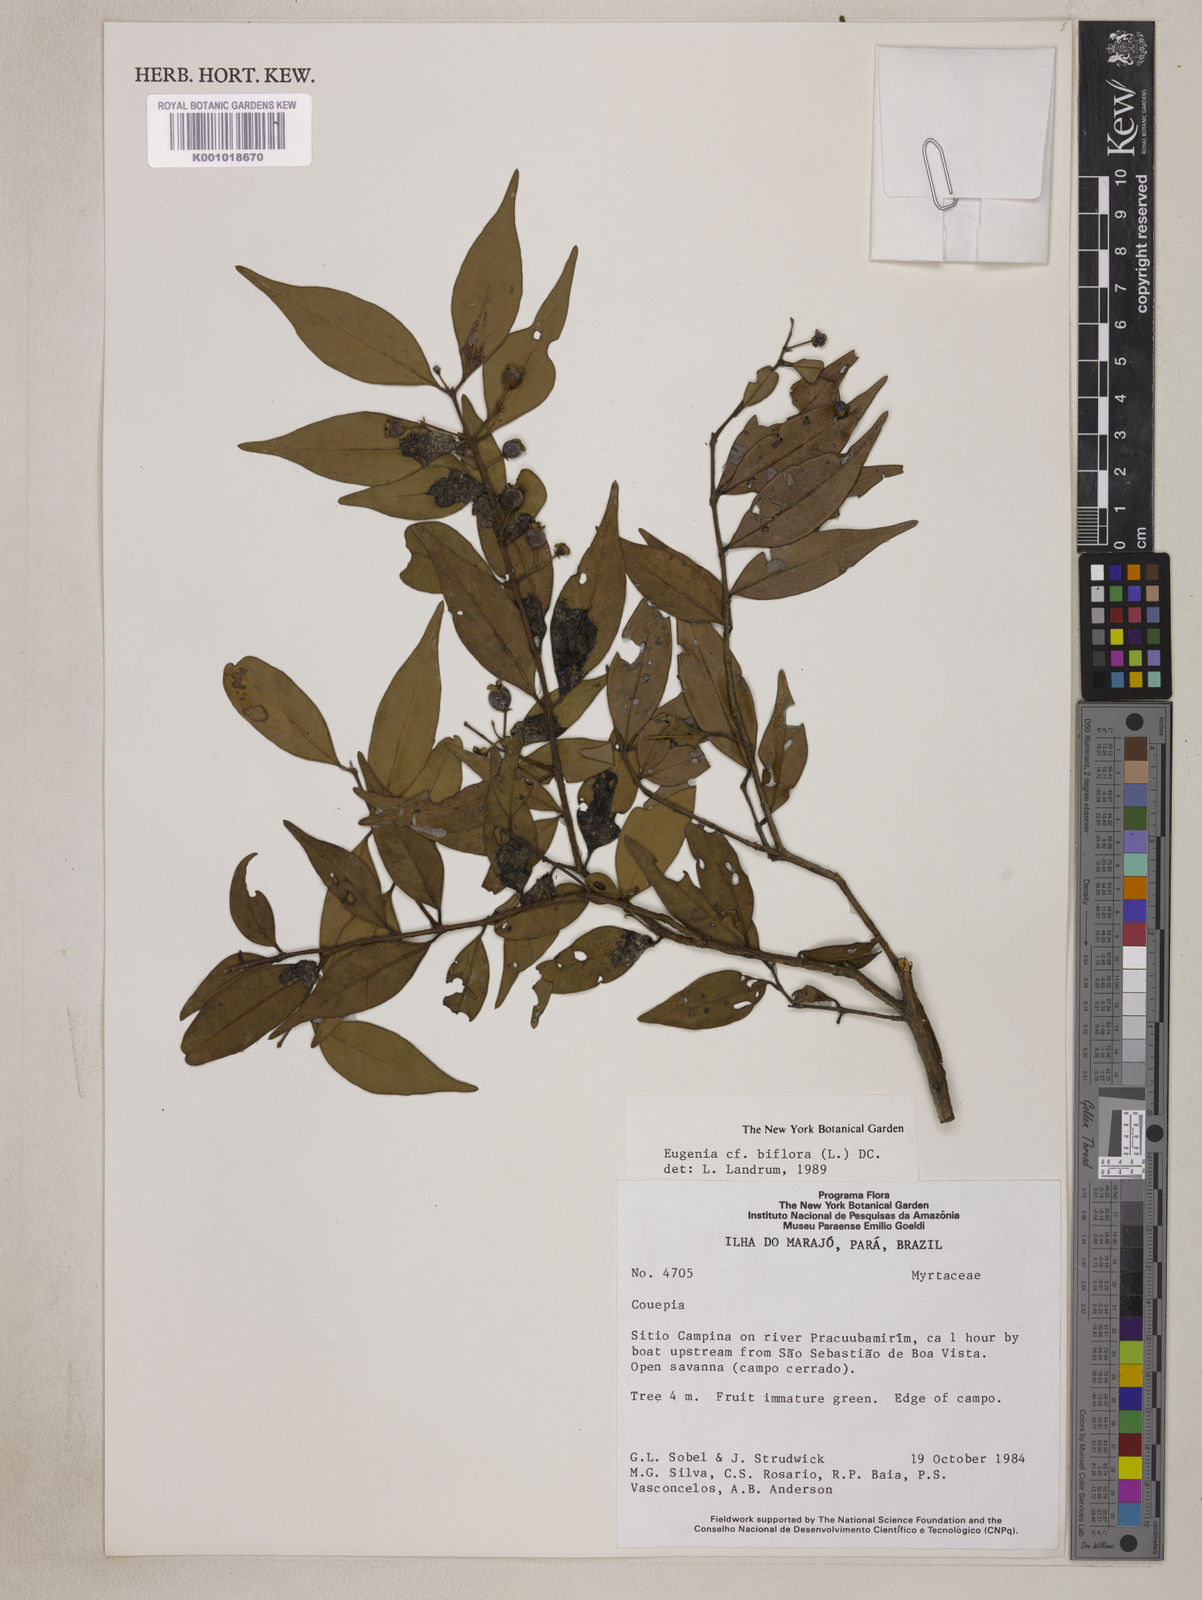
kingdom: Plantae
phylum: Tracheophyta
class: Magnoliopsida
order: Myrtales
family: Myrtaceae
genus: Eugenia
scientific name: Eugenia biflora
